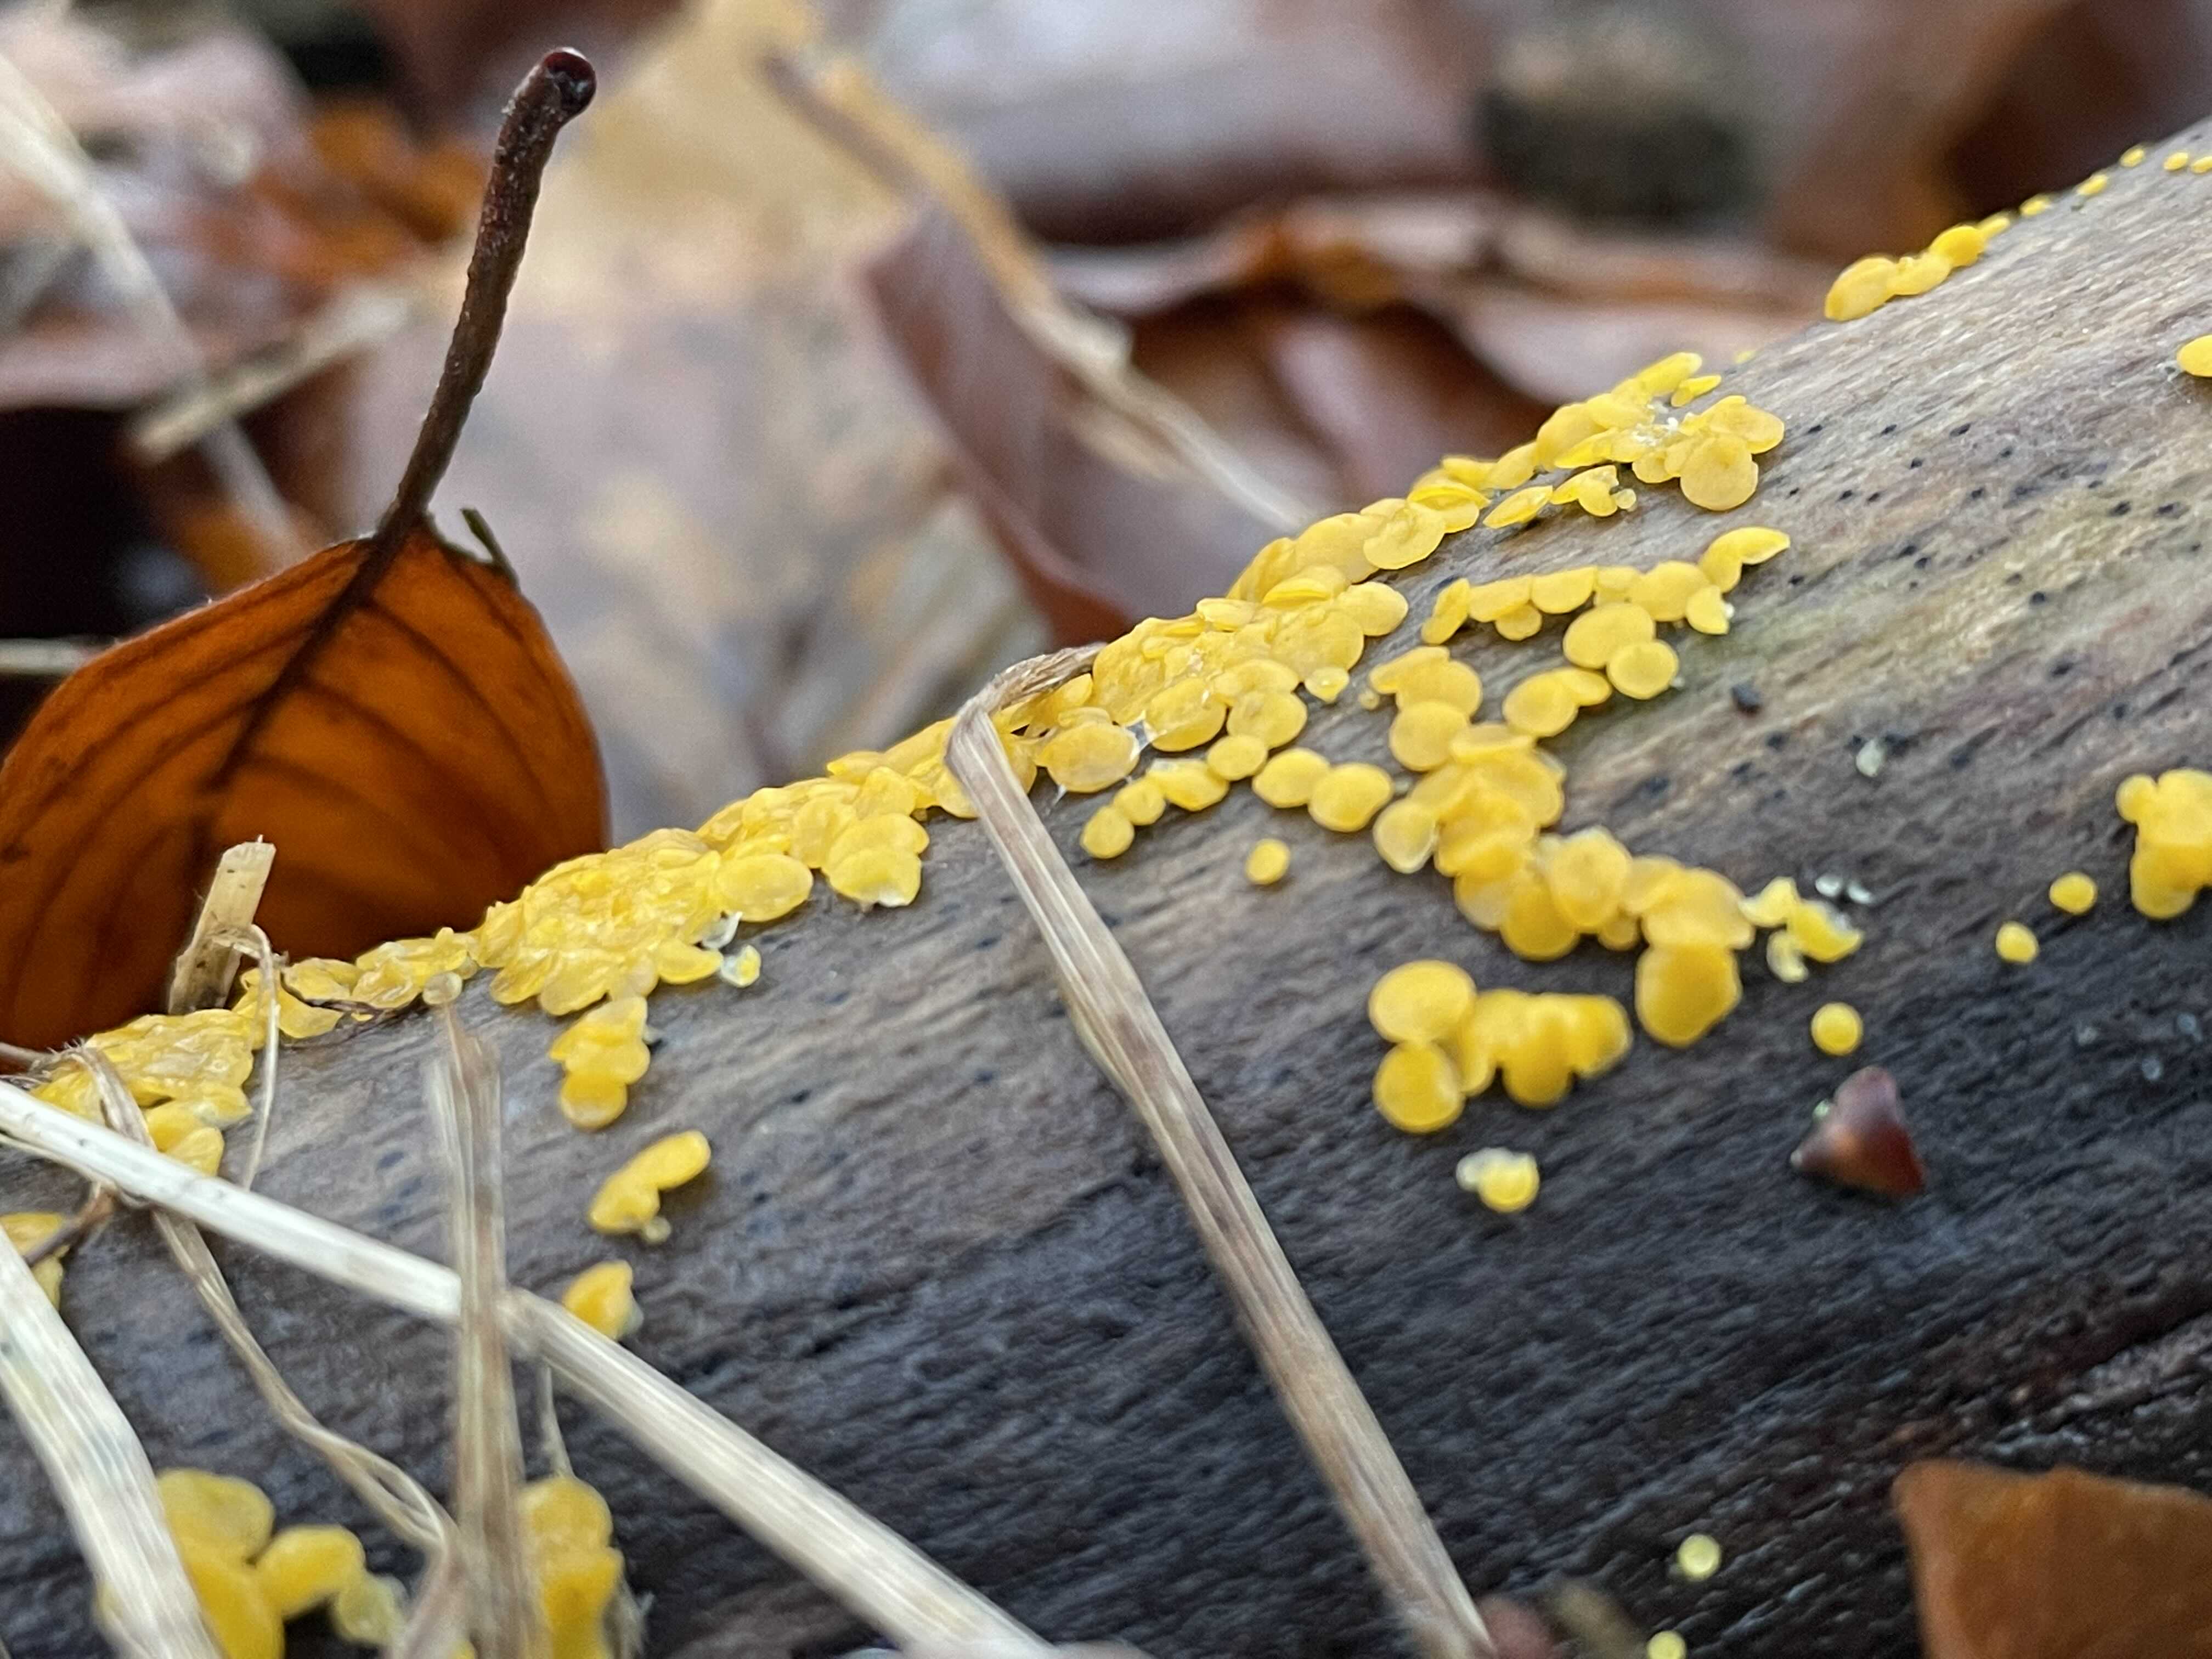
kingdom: Fungi
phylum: Ascomycota
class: Leotiomycetes
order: Helotiales
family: Pezizellaceae
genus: Calycina
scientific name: Calycina citrina
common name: almindelig gulskive
